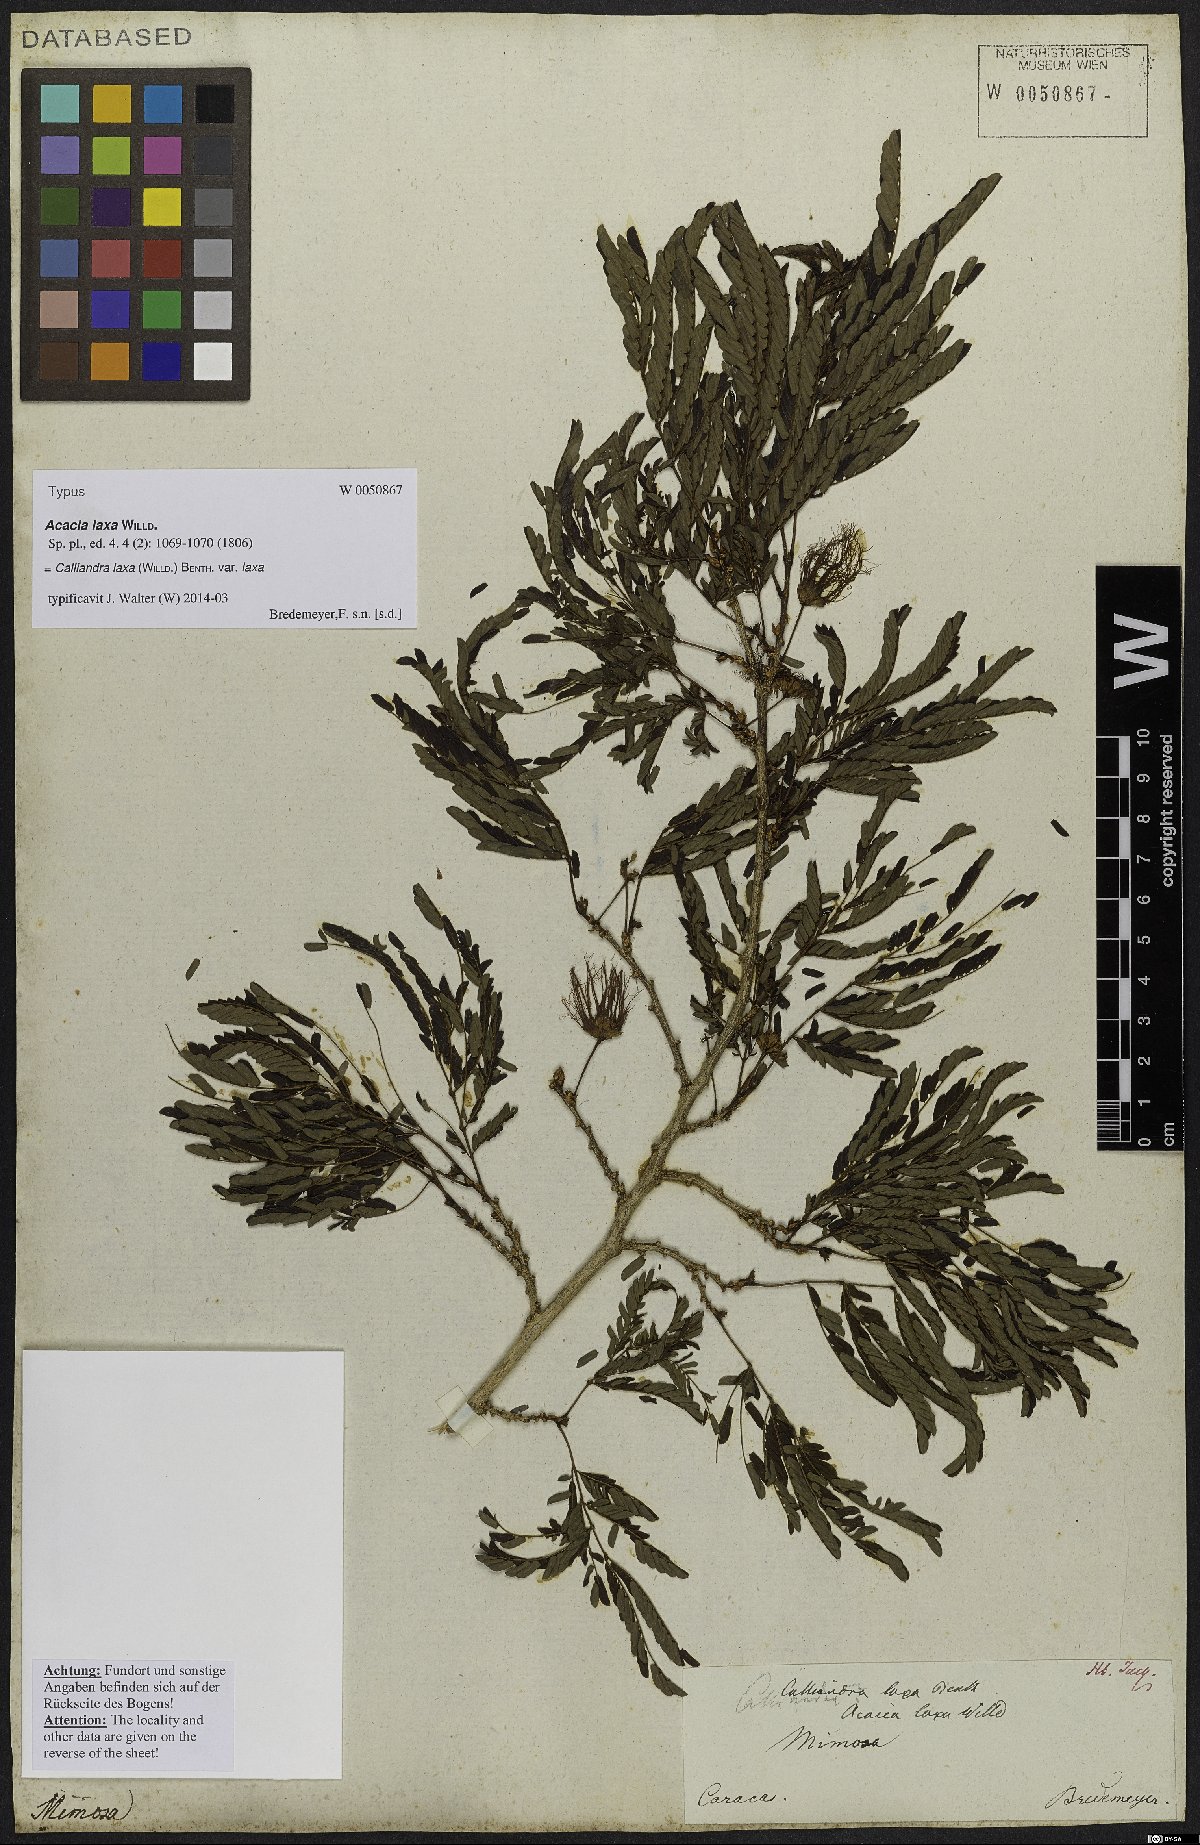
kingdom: Plantae
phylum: Tracheophyta
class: Magnoliopsida
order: Fabales
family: Fabaceae
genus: Calliandra
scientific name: Calliandra laxa
